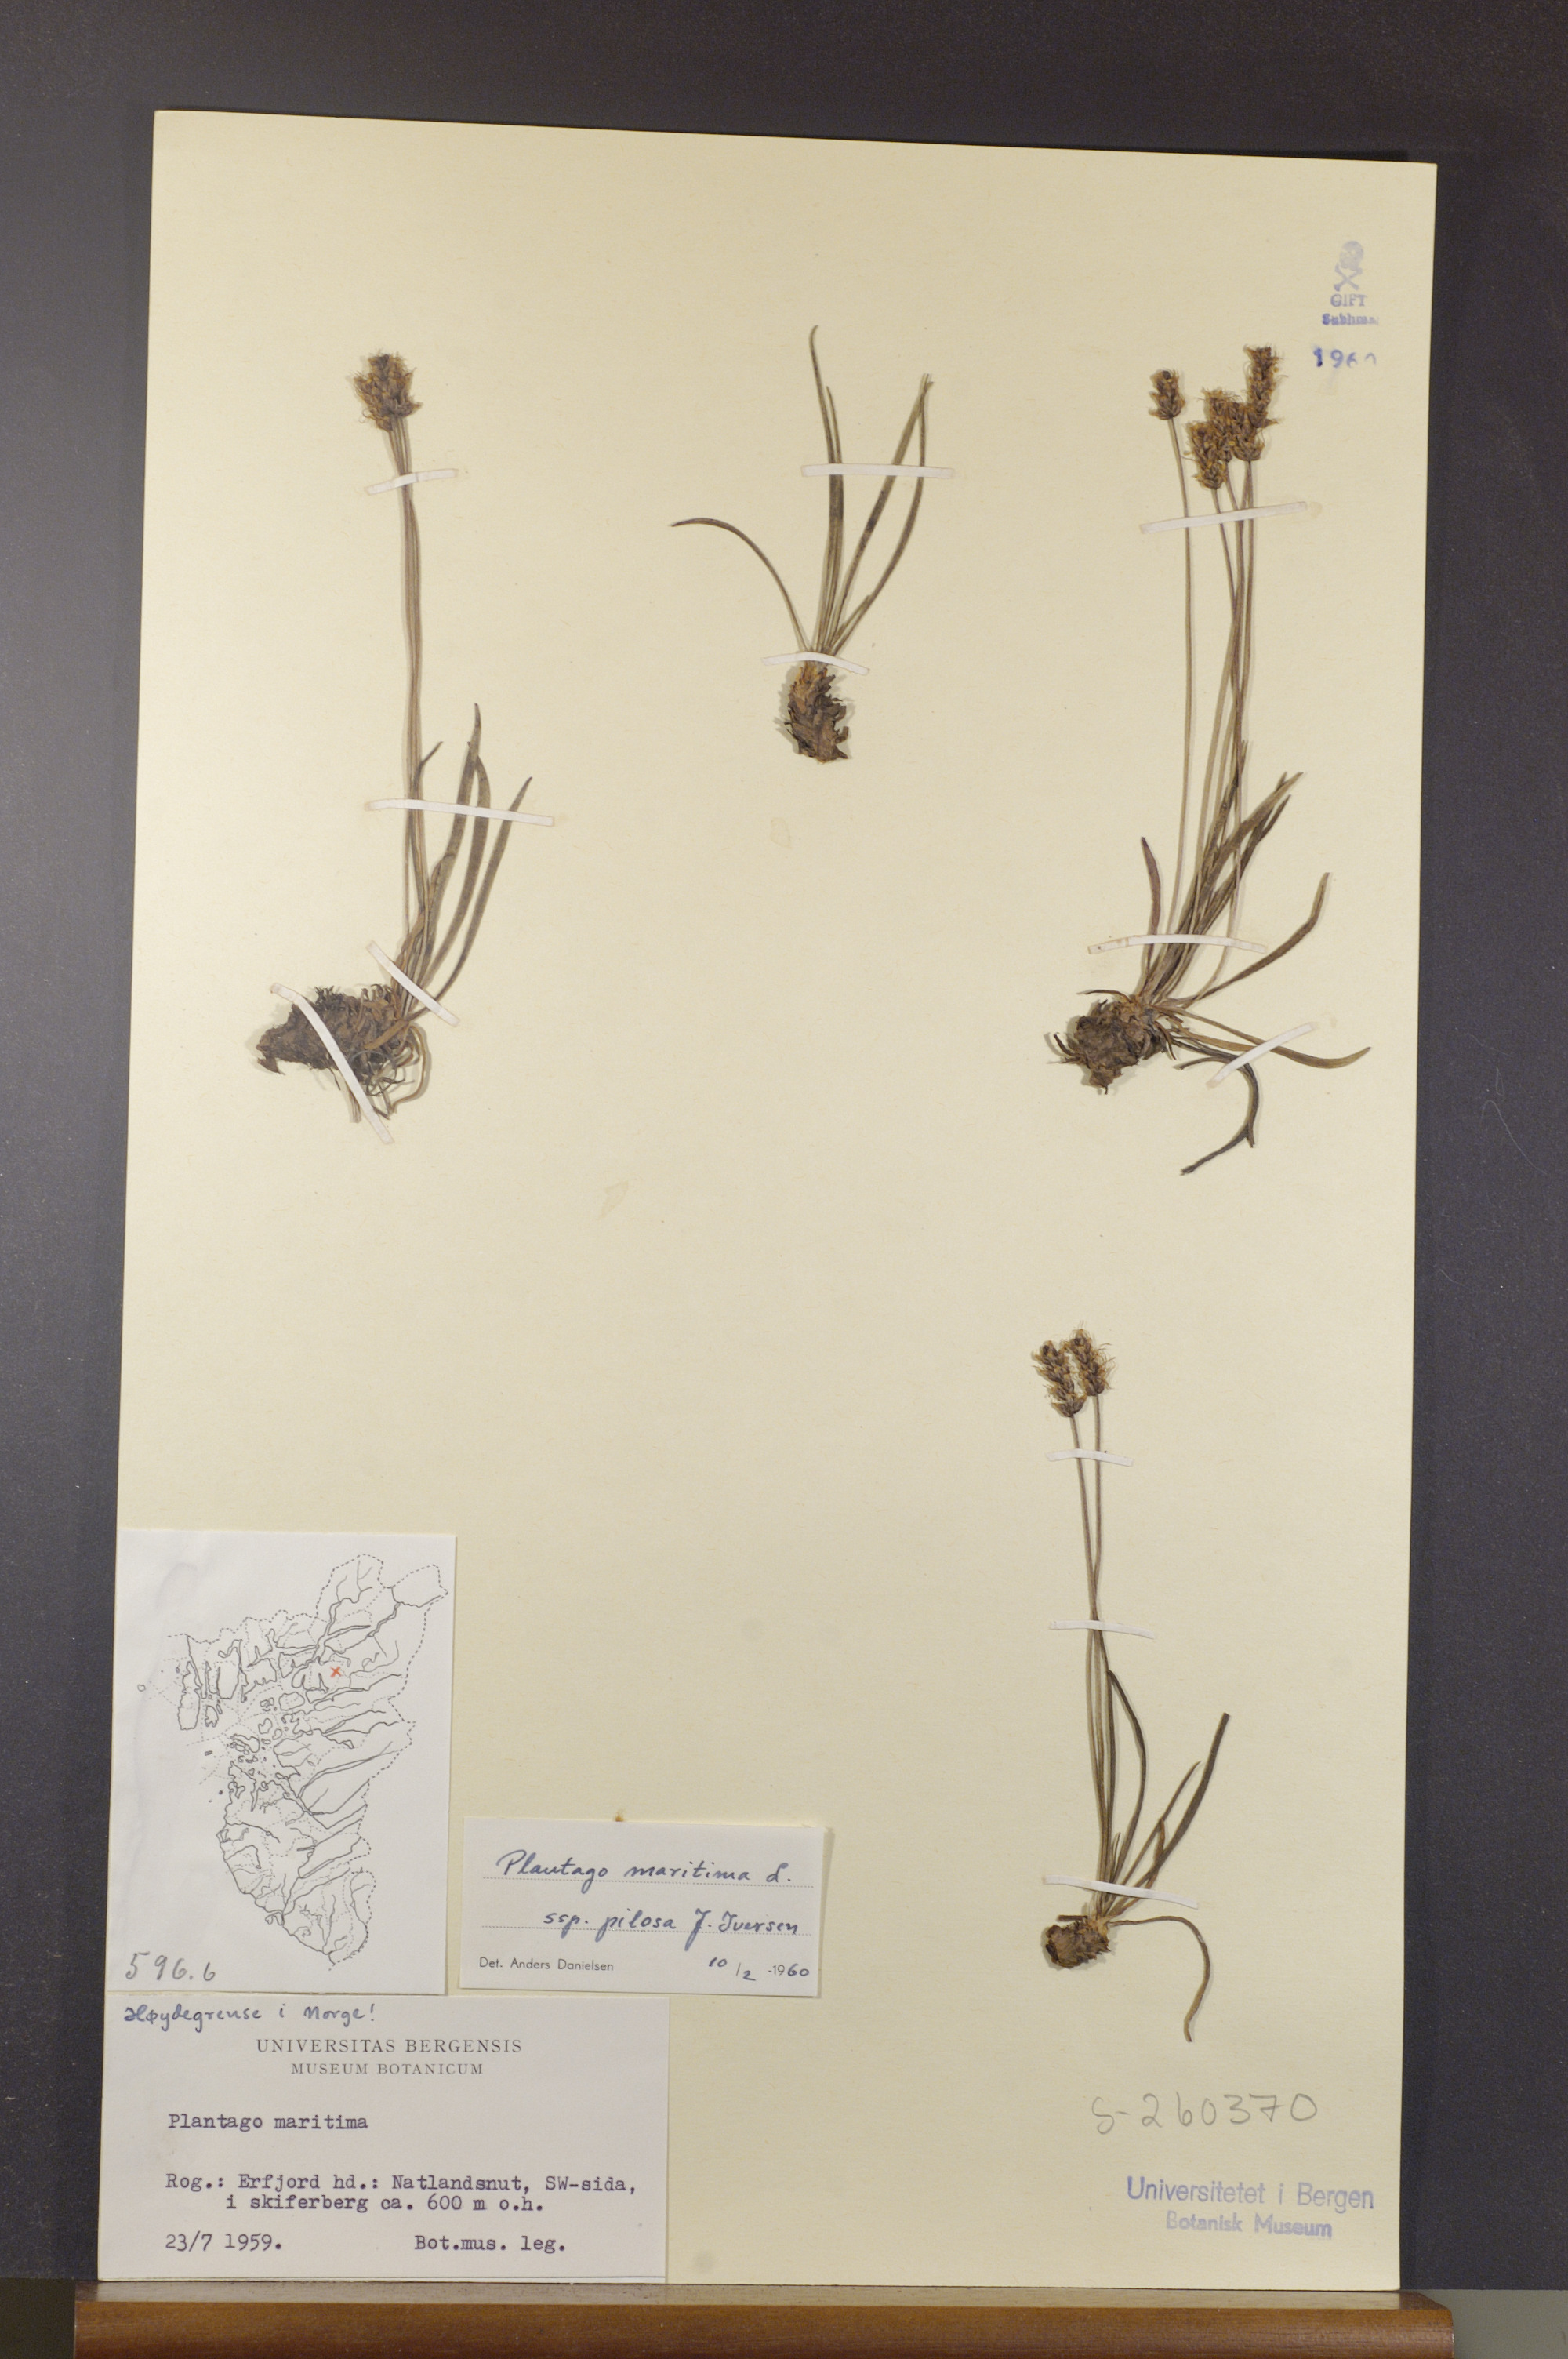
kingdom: Plantae
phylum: Tracheophyta
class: Magnoliopsida
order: Lamiales
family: Plantaginaceae
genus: Plantago
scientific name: Plantago maritima
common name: Sea plantain
